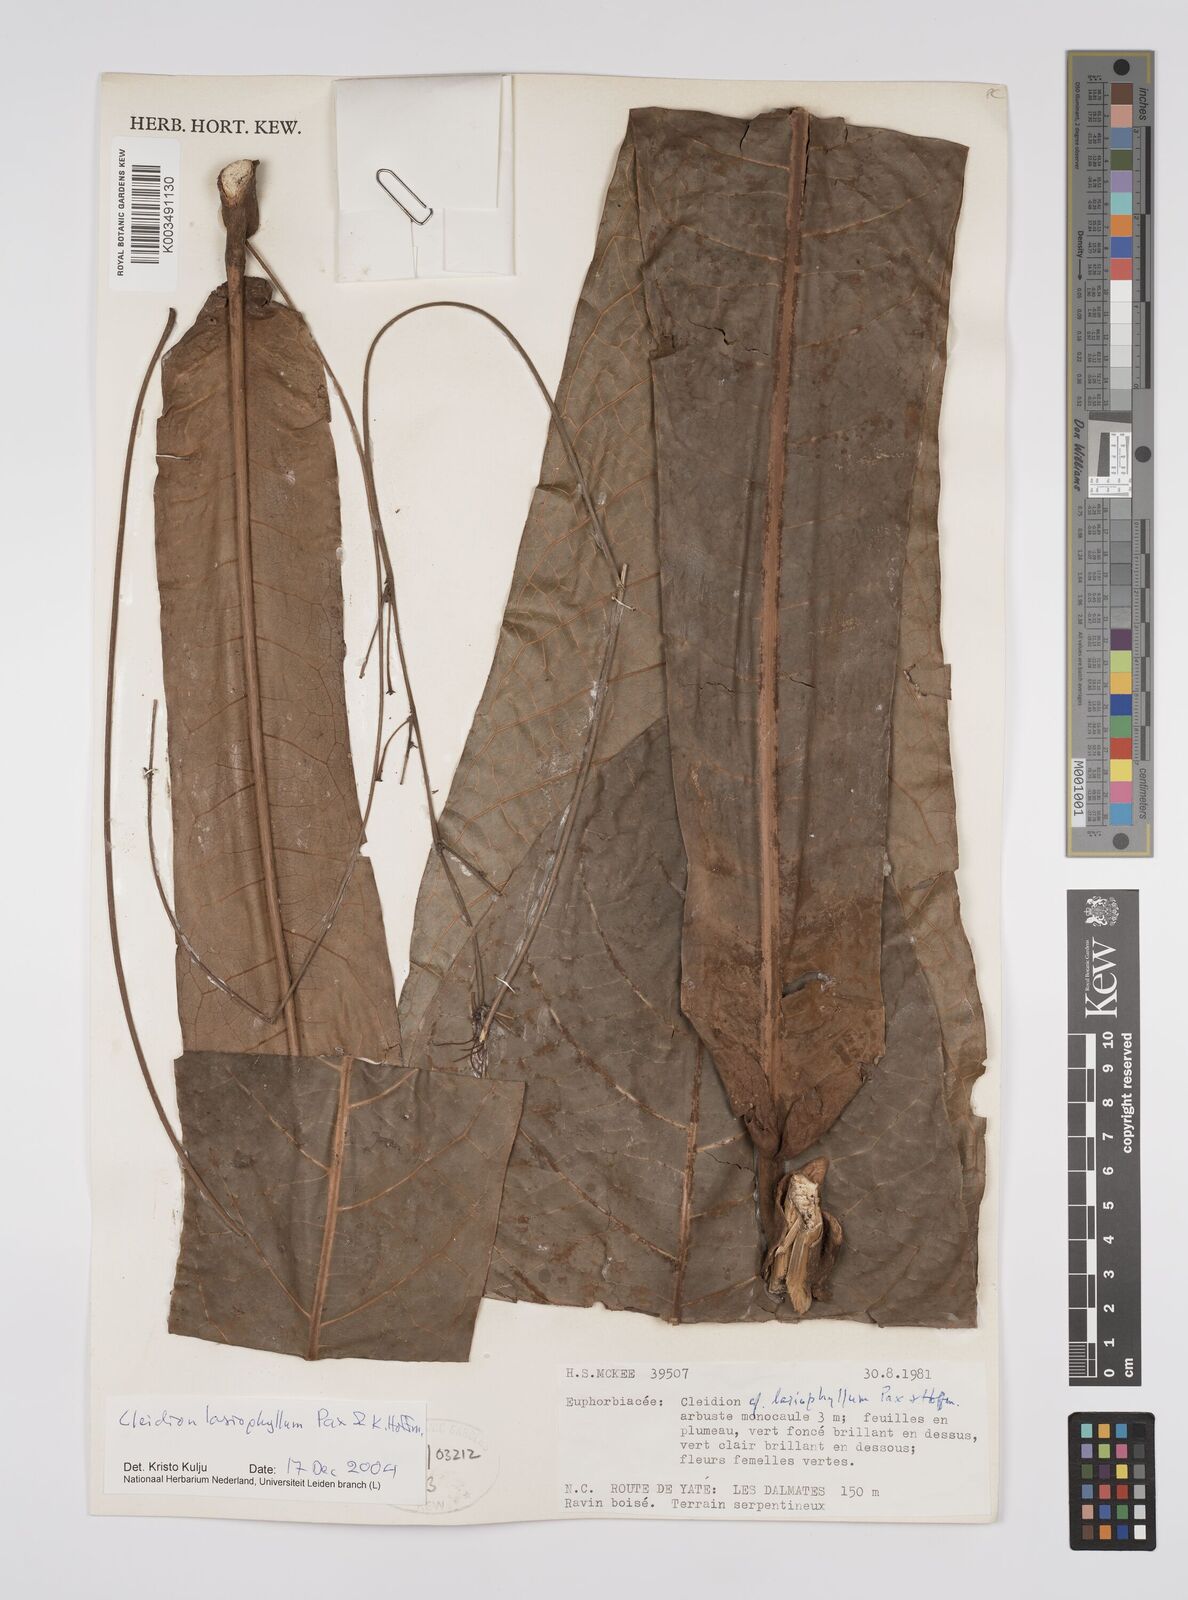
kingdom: Plantae
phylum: Tracheophyta
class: Magnoliopsida
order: Malpighiales
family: Euphorbiaceae
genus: Cleidion
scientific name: Cleidion lasiophyllum
